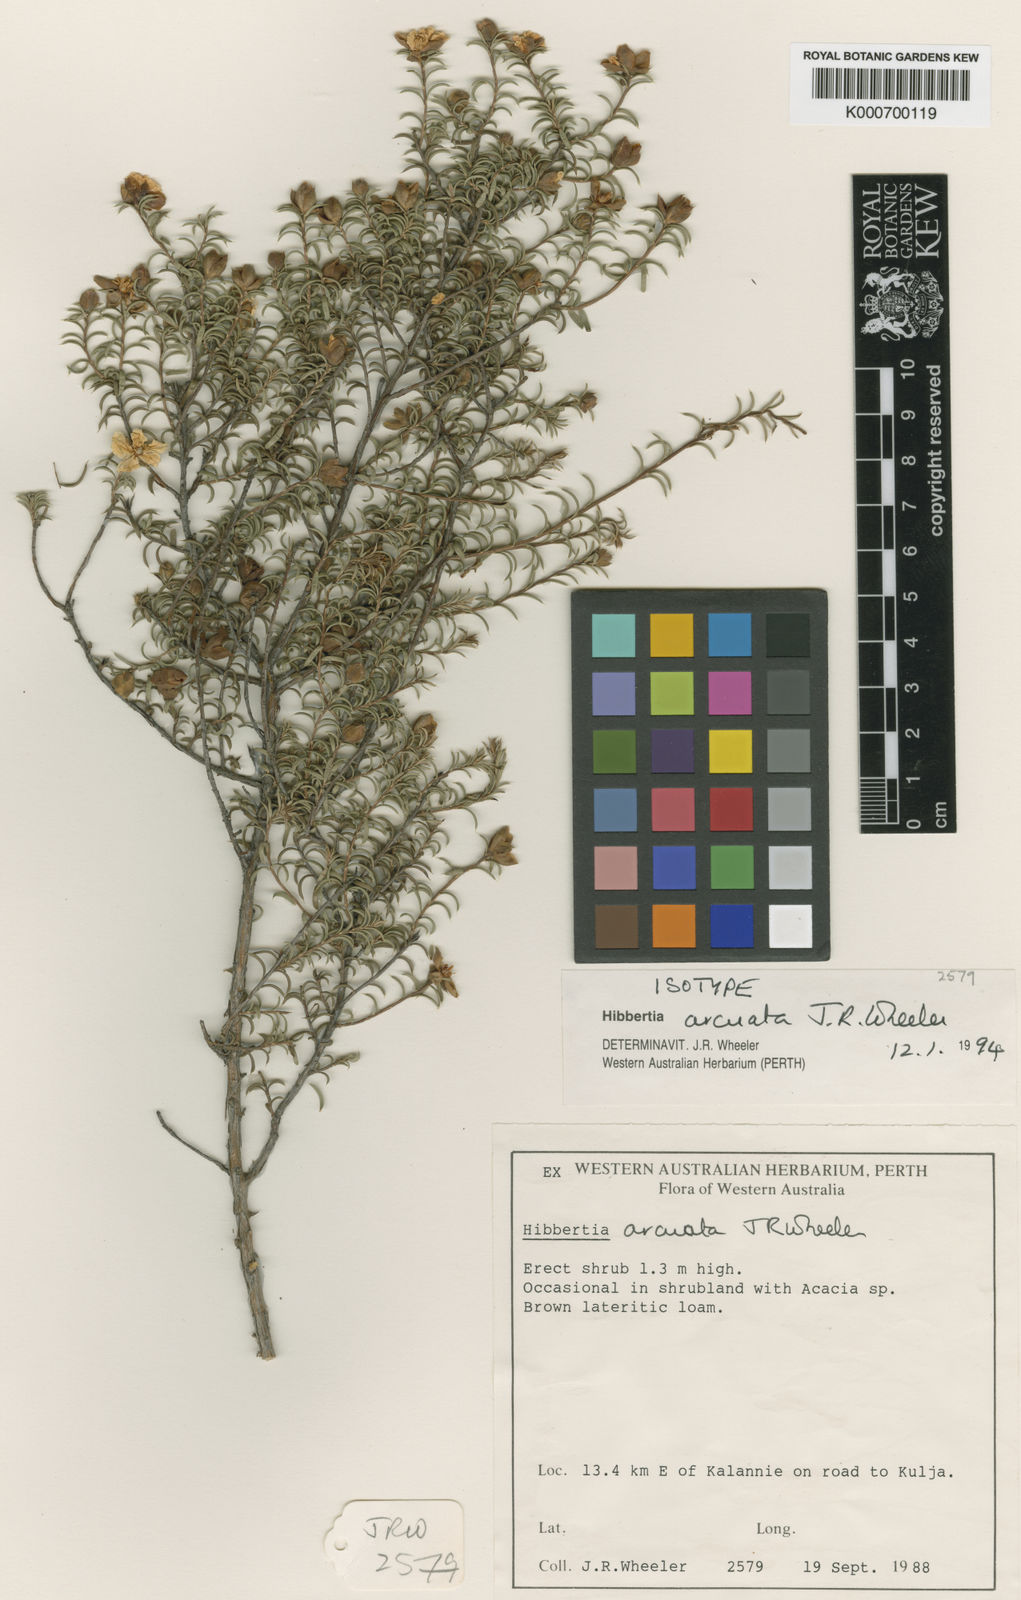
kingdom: Plantae
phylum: Tracheophyta
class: Magnoliopsida
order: Dilleniales
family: Dilleniaceae
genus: Hibbertia
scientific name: Hibbertia arcuata
